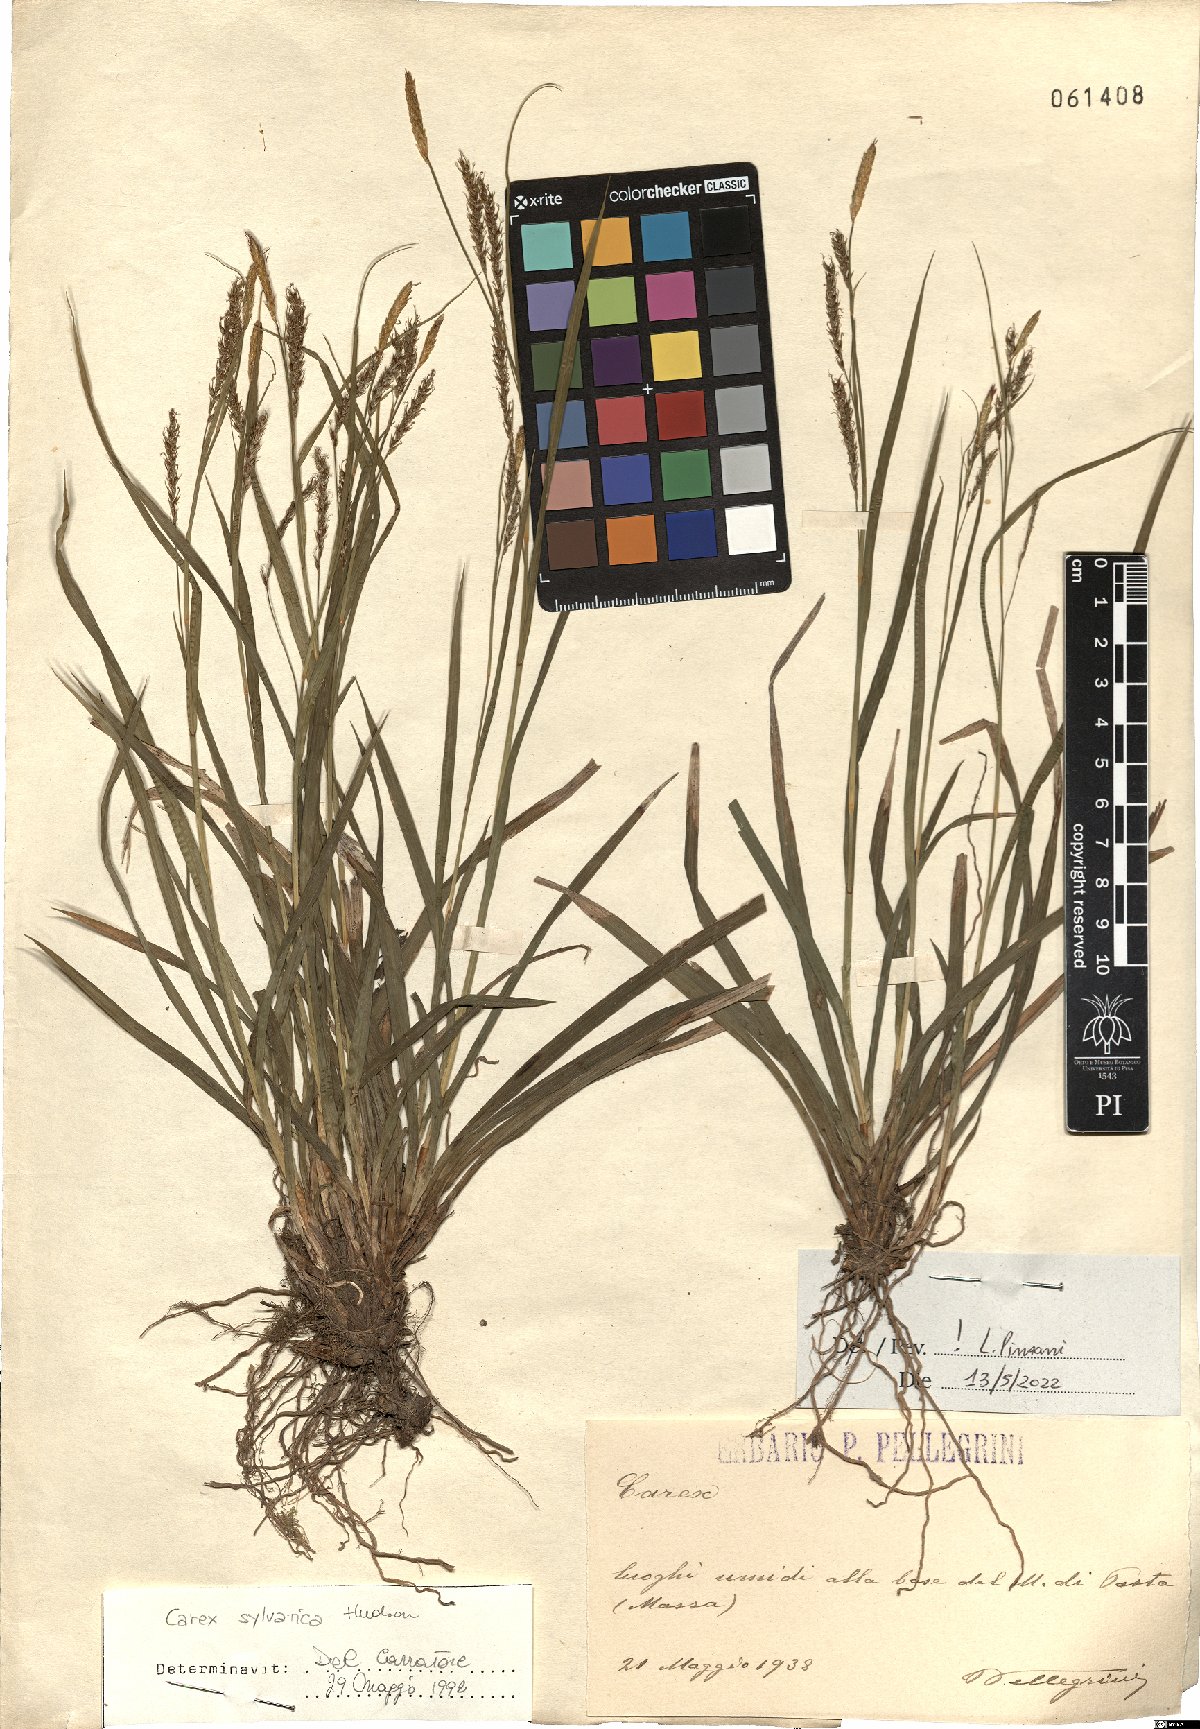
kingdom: Plantae
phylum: Tracheophyta
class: Liliopsida
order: Poales
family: Cyperaceae
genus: Carex
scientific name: Carex sylvatica
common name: Wood-sedge
